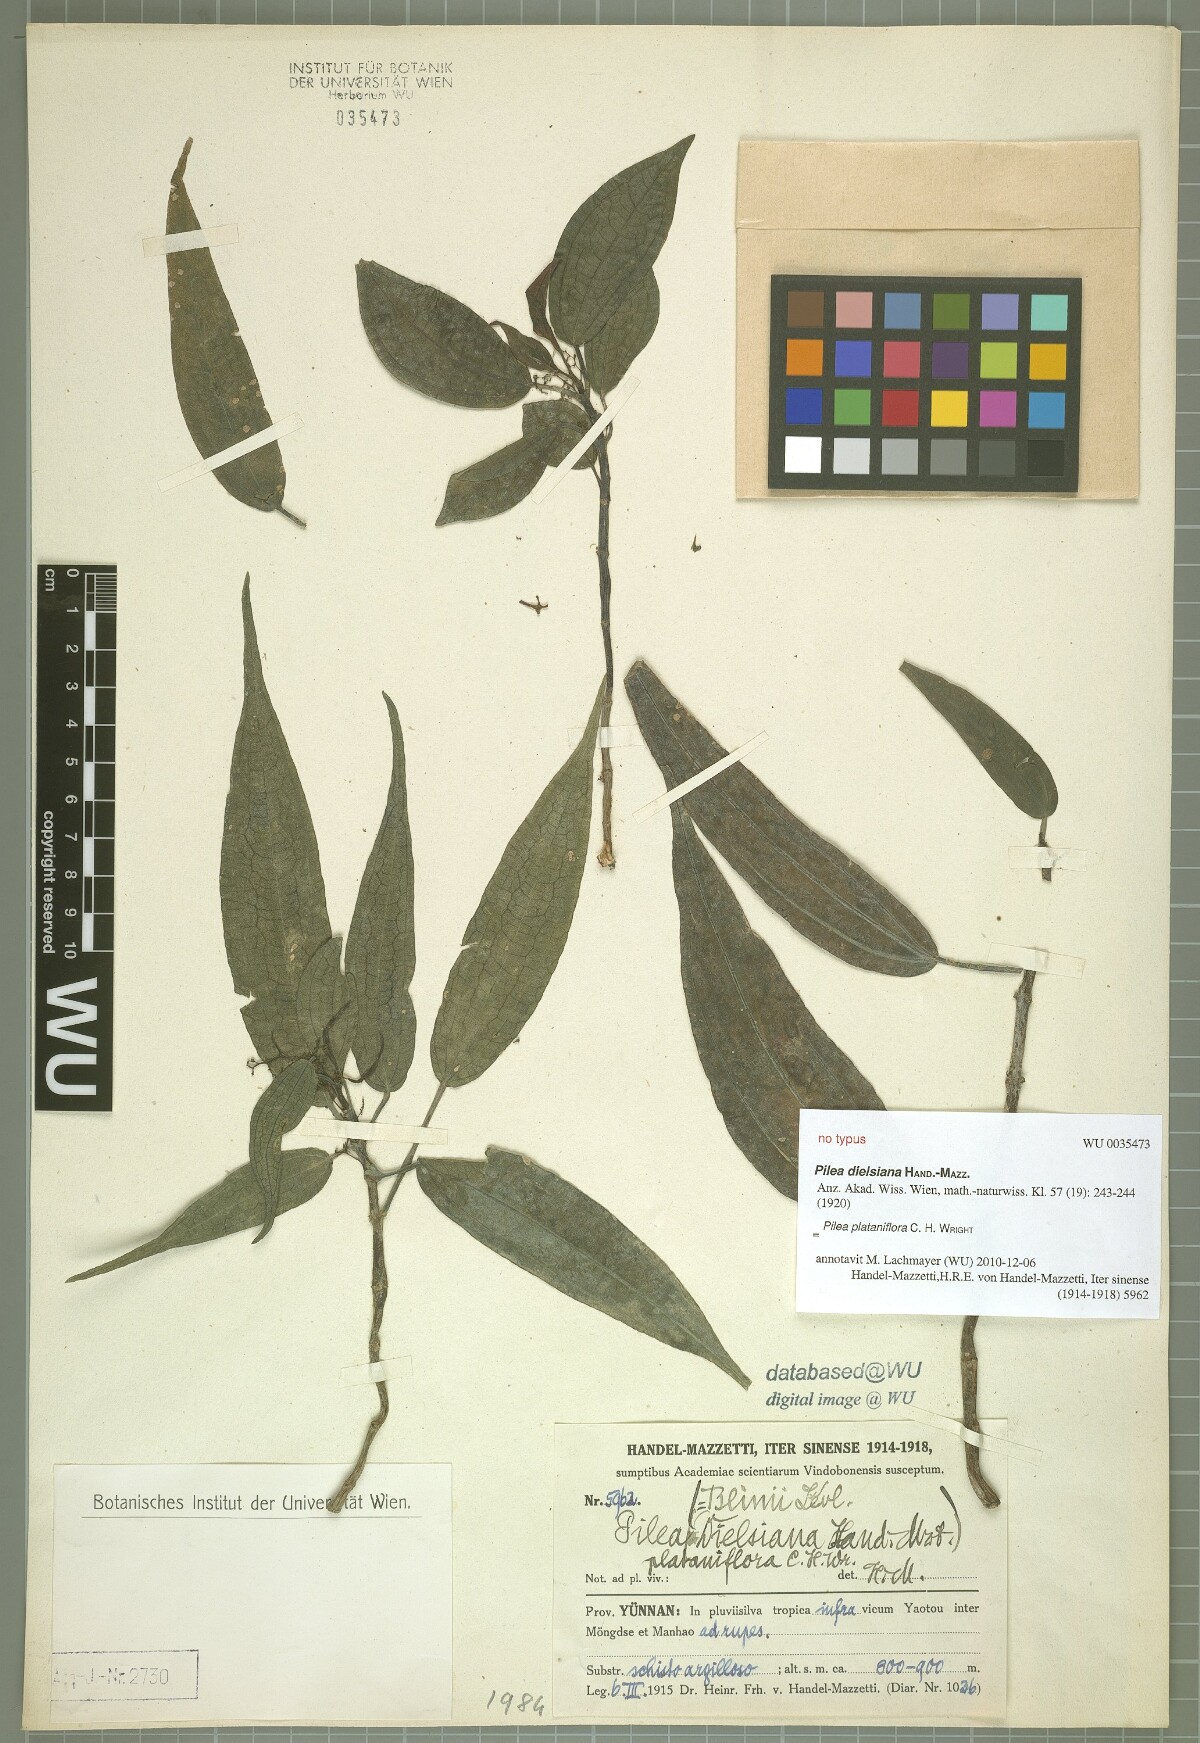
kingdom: Plantae
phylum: Tracheophyta
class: Magnoliopsida
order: Rosales
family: Urticaceae
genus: Pilea
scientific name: Pilea plataniflora
